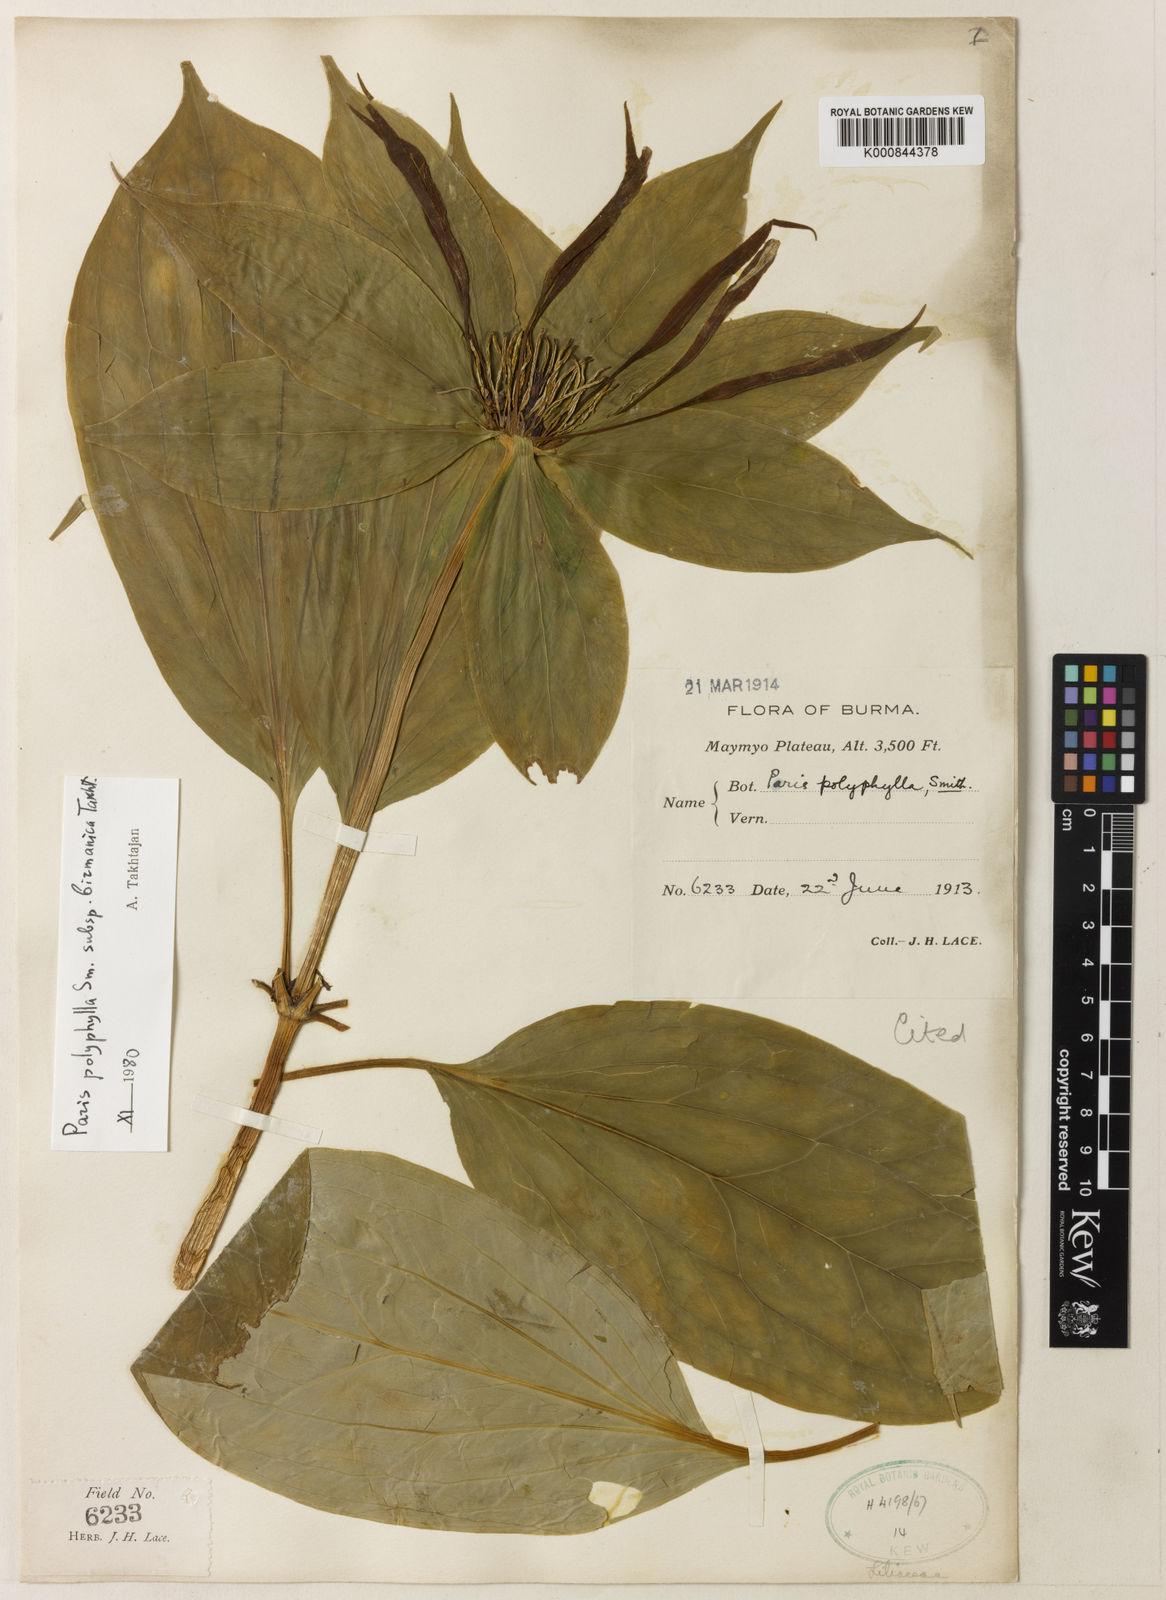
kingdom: Plantae
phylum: Tracheophyta
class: Liliopsida
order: Liliales
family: Melanthiaceae
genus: Paris
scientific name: Paris yunnanensis
